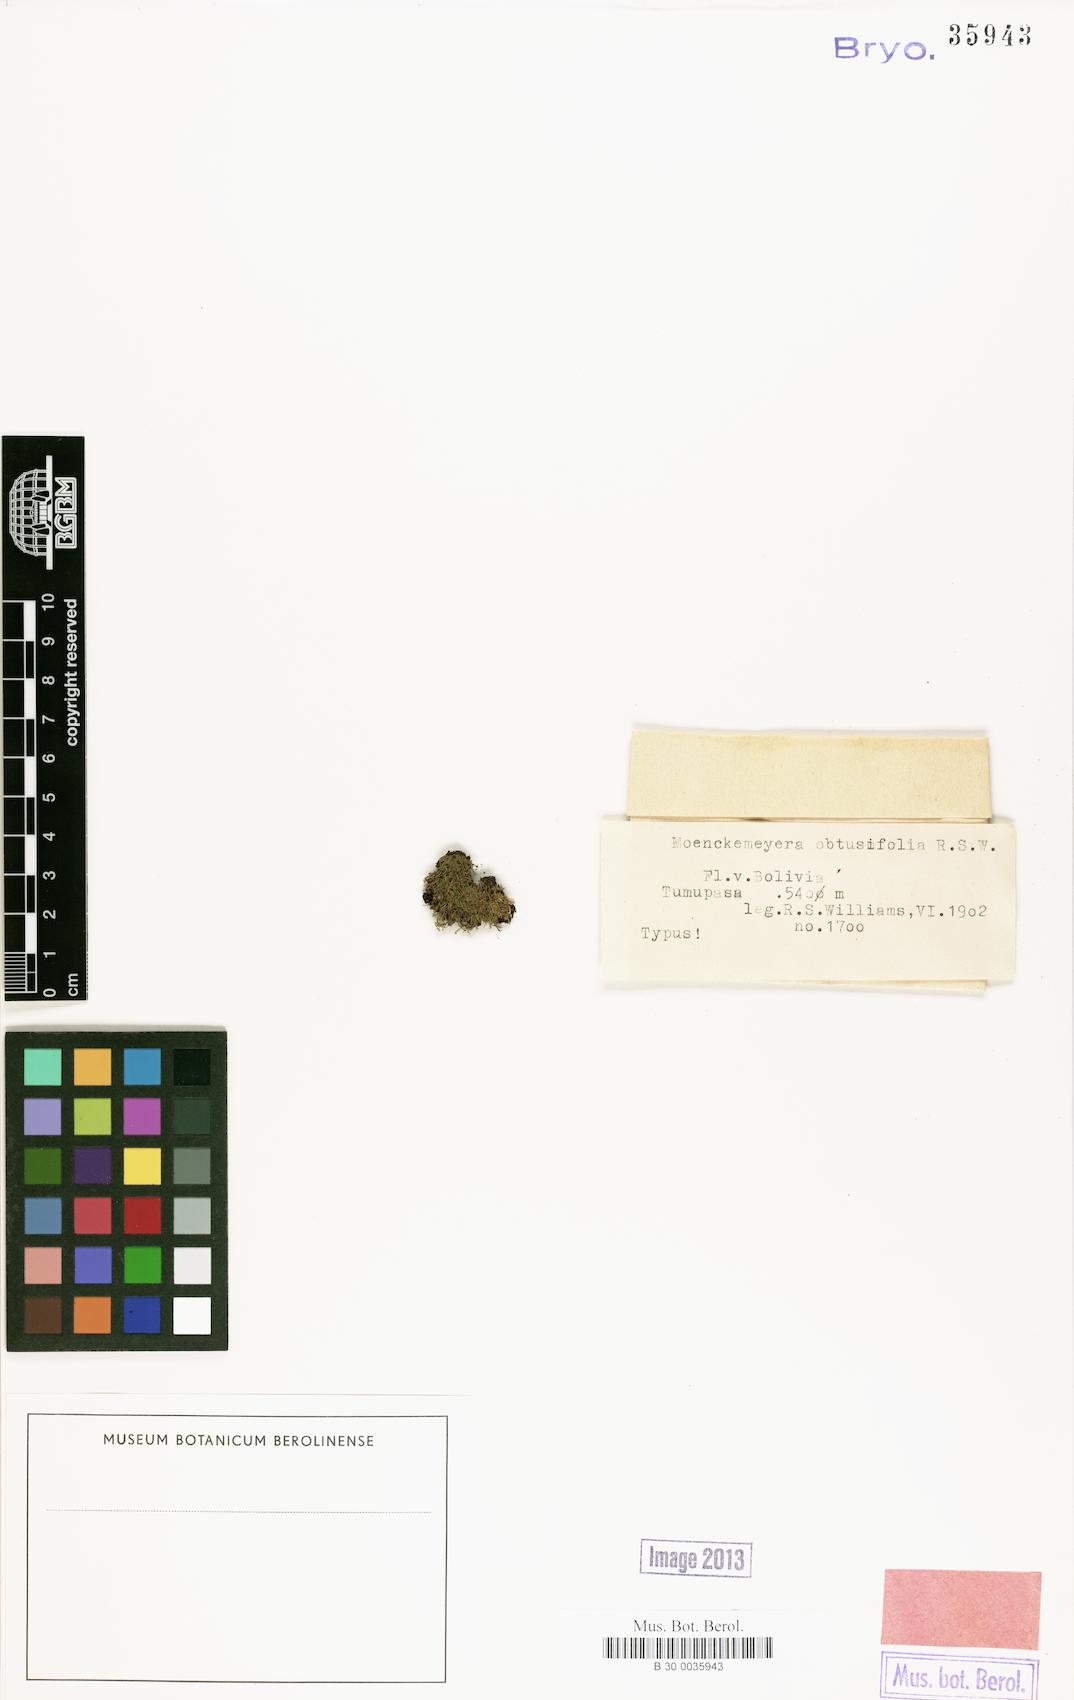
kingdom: Plantae
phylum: Bryophyta
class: Bryopsida
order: Dicranales
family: Fissidentaceae
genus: Fissidens
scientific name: Fissidens lagenarius
